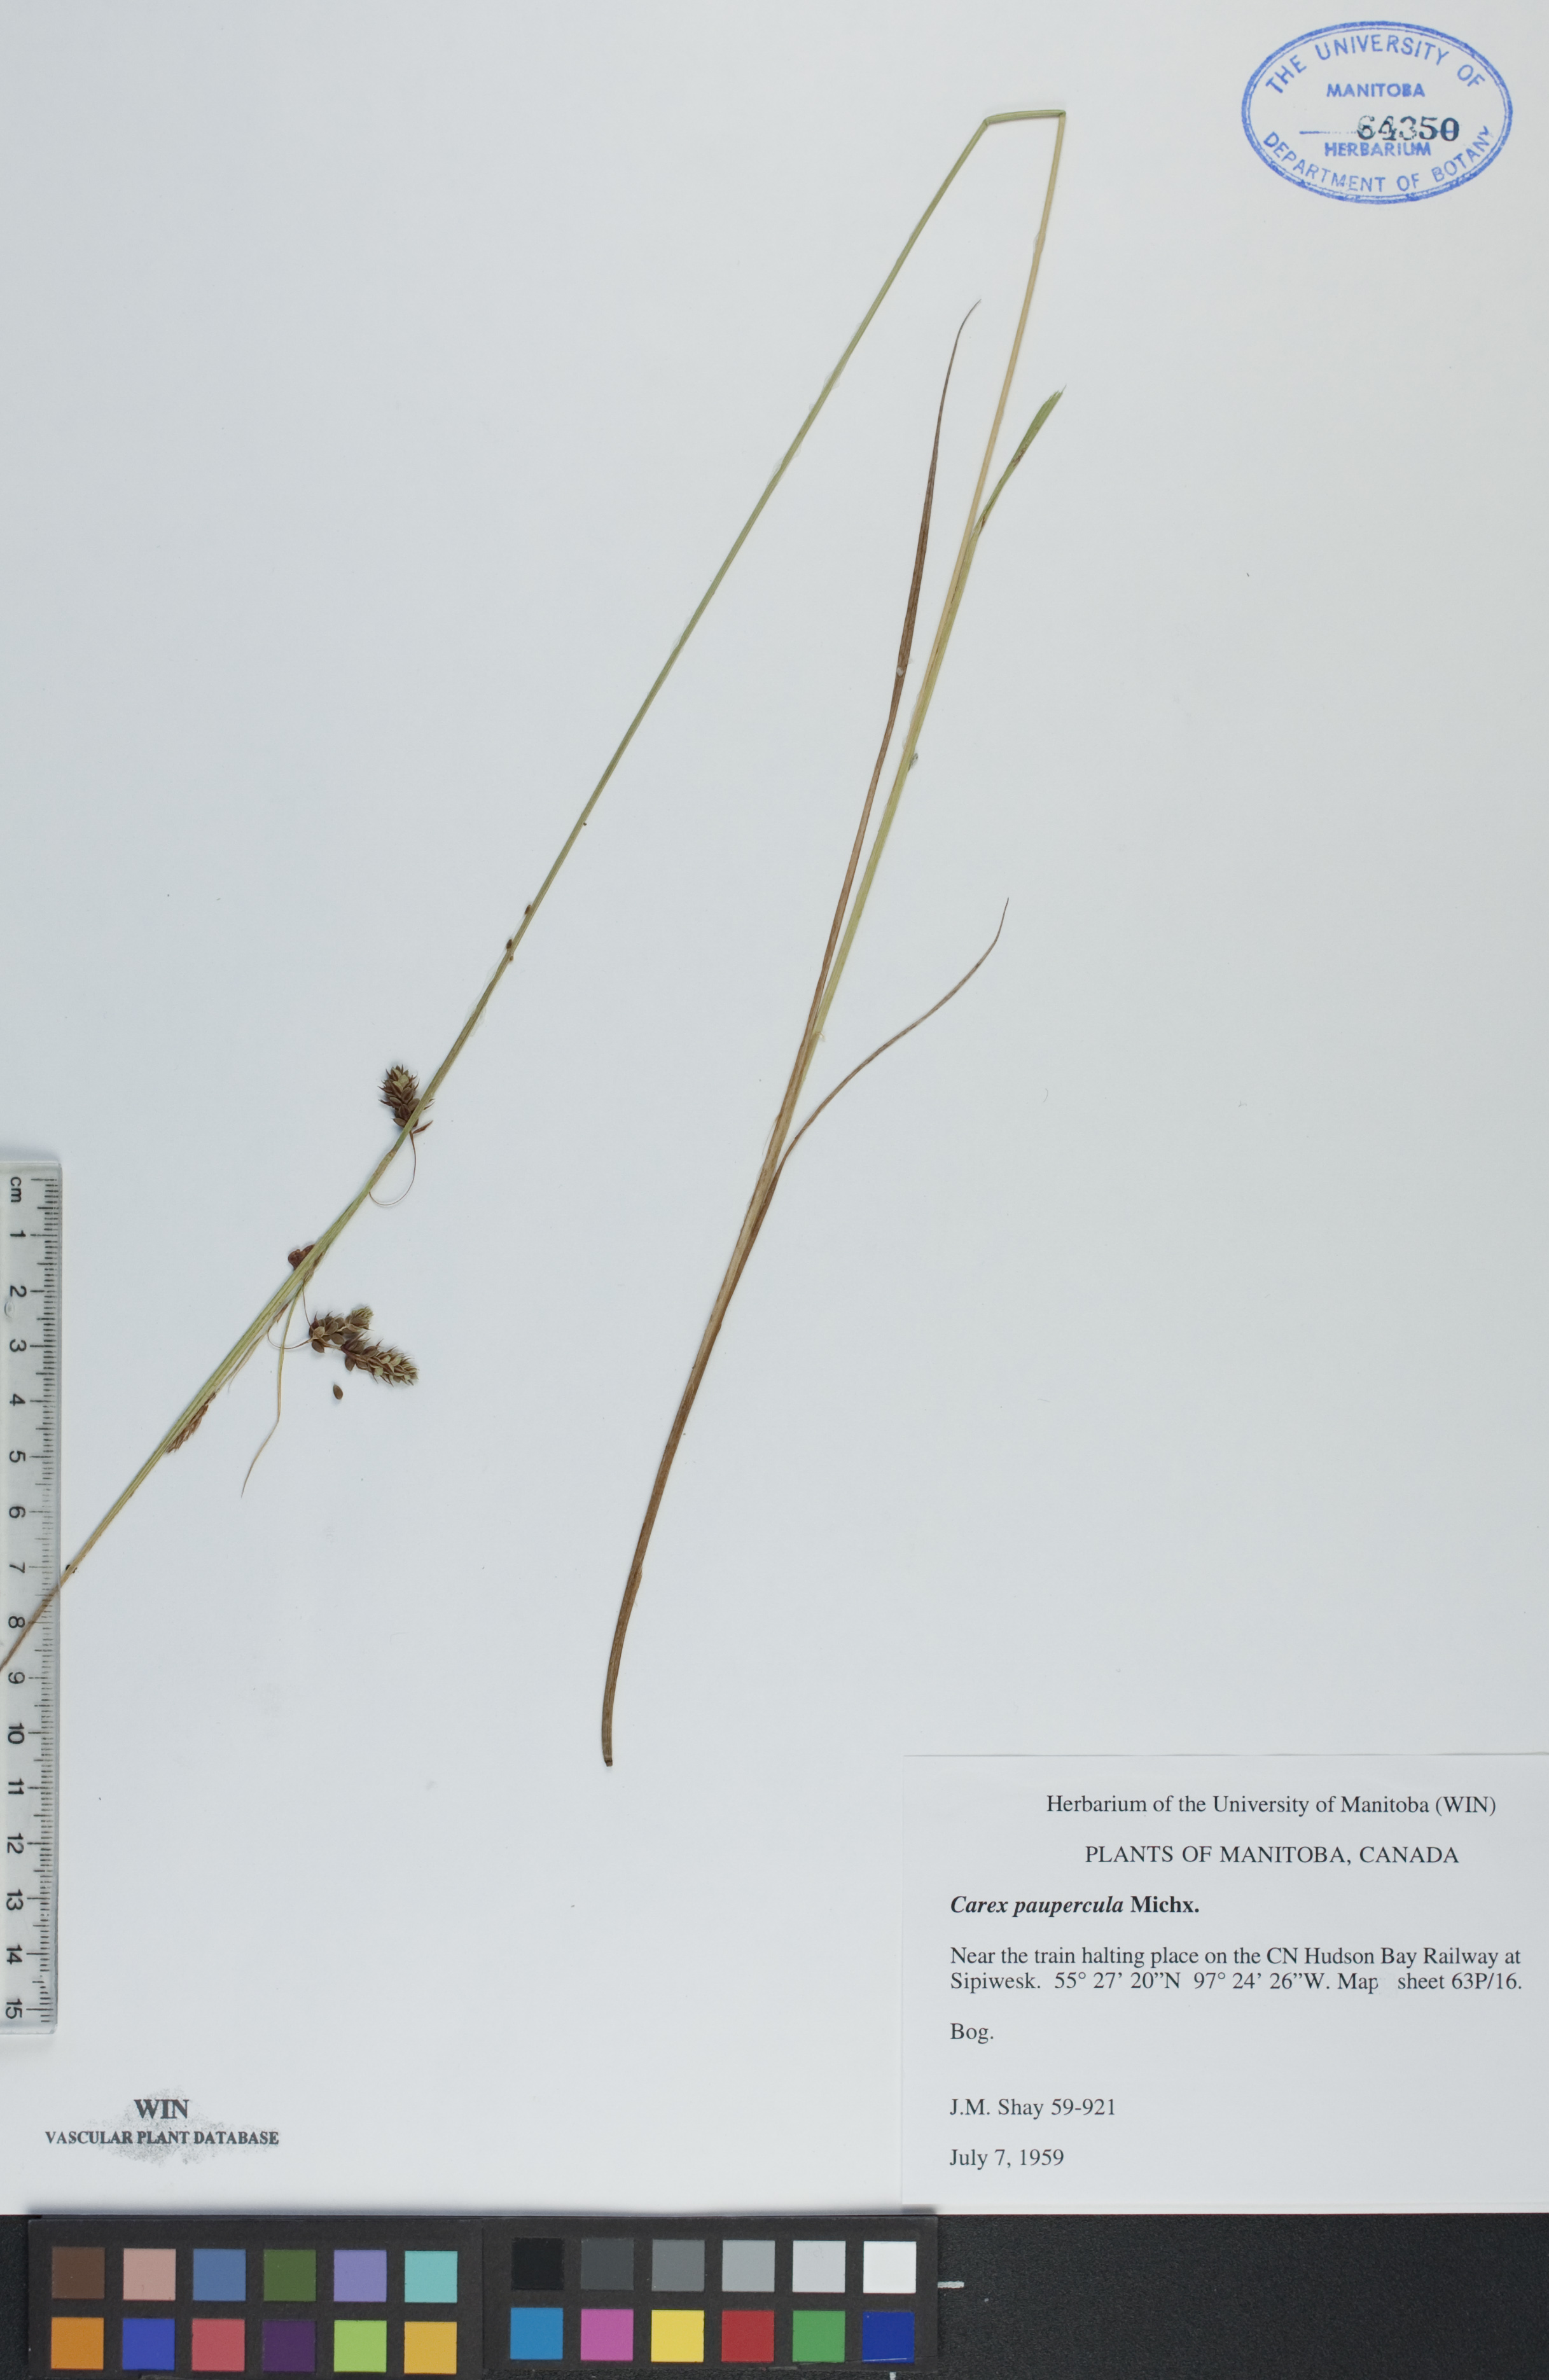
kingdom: Plantae
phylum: Tracheophyta
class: Liliopsida
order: Poales
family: Cyperaceae
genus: Carex
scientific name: Carex magellanica
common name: Bog sedge
